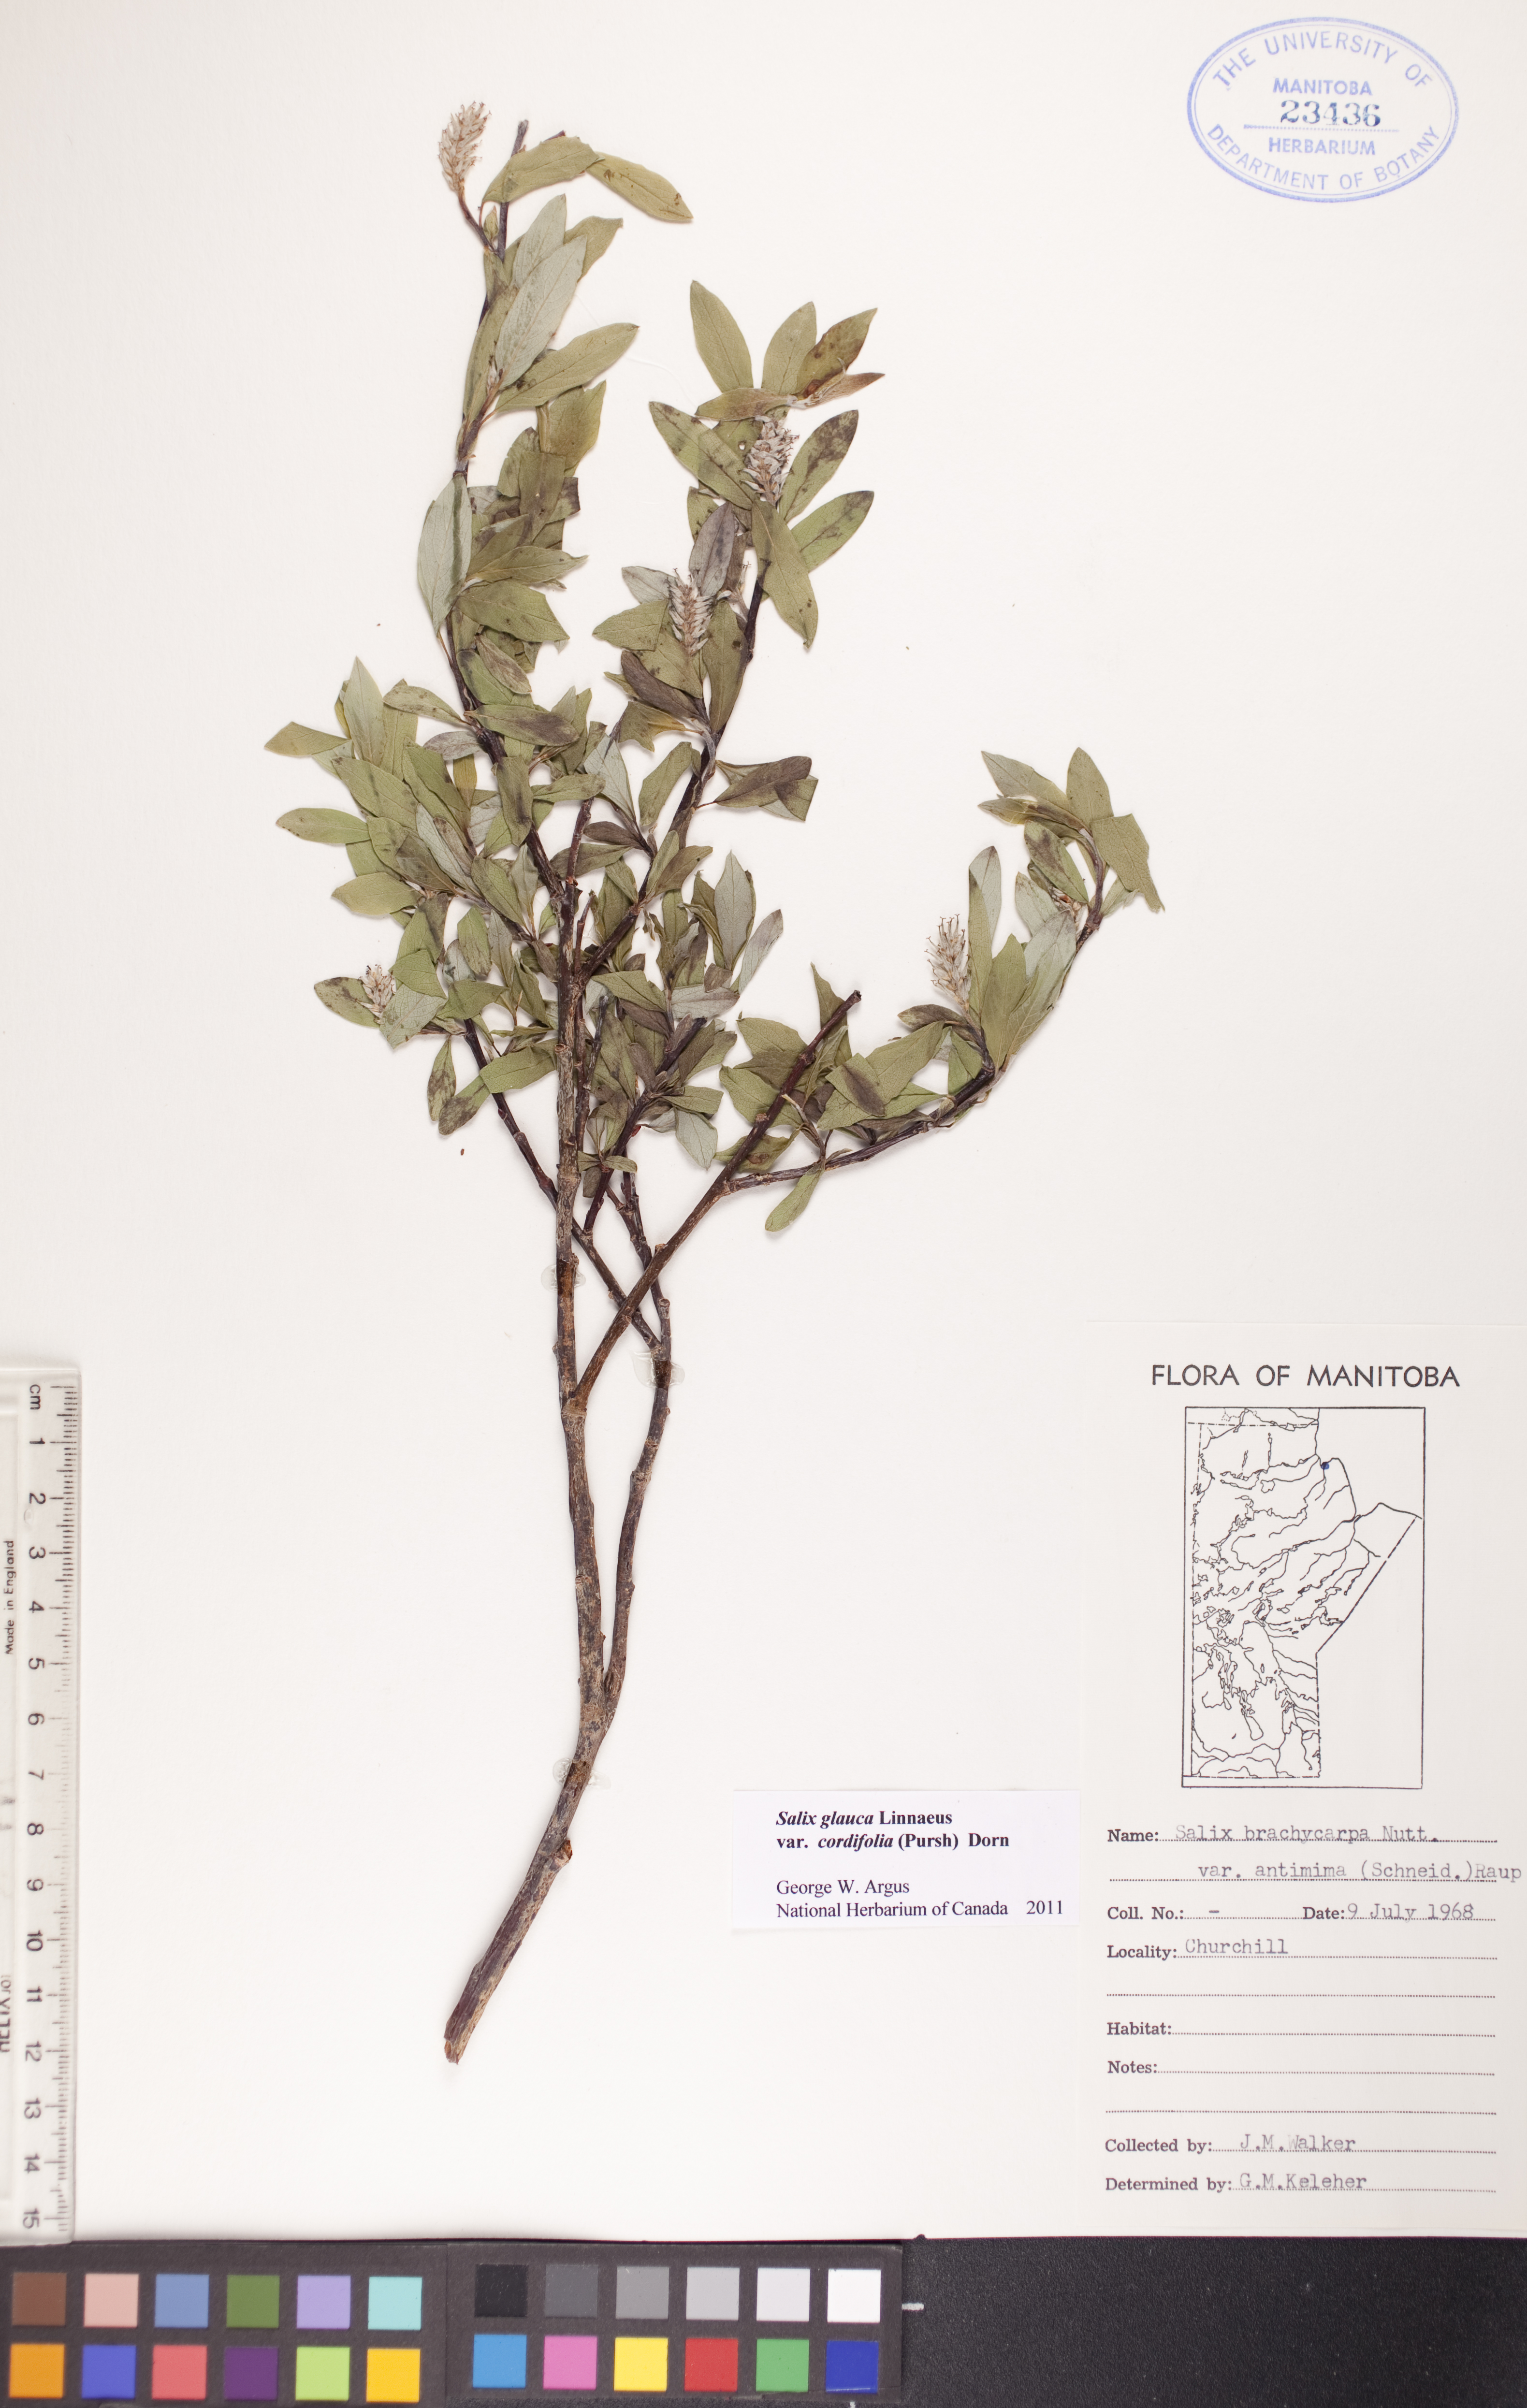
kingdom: Plantae
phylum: Tracheophyta
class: Magnoliopsida
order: Malpighiales
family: Salicaceae
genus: Salix
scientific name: Salix glauca
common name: Glaucous willow
